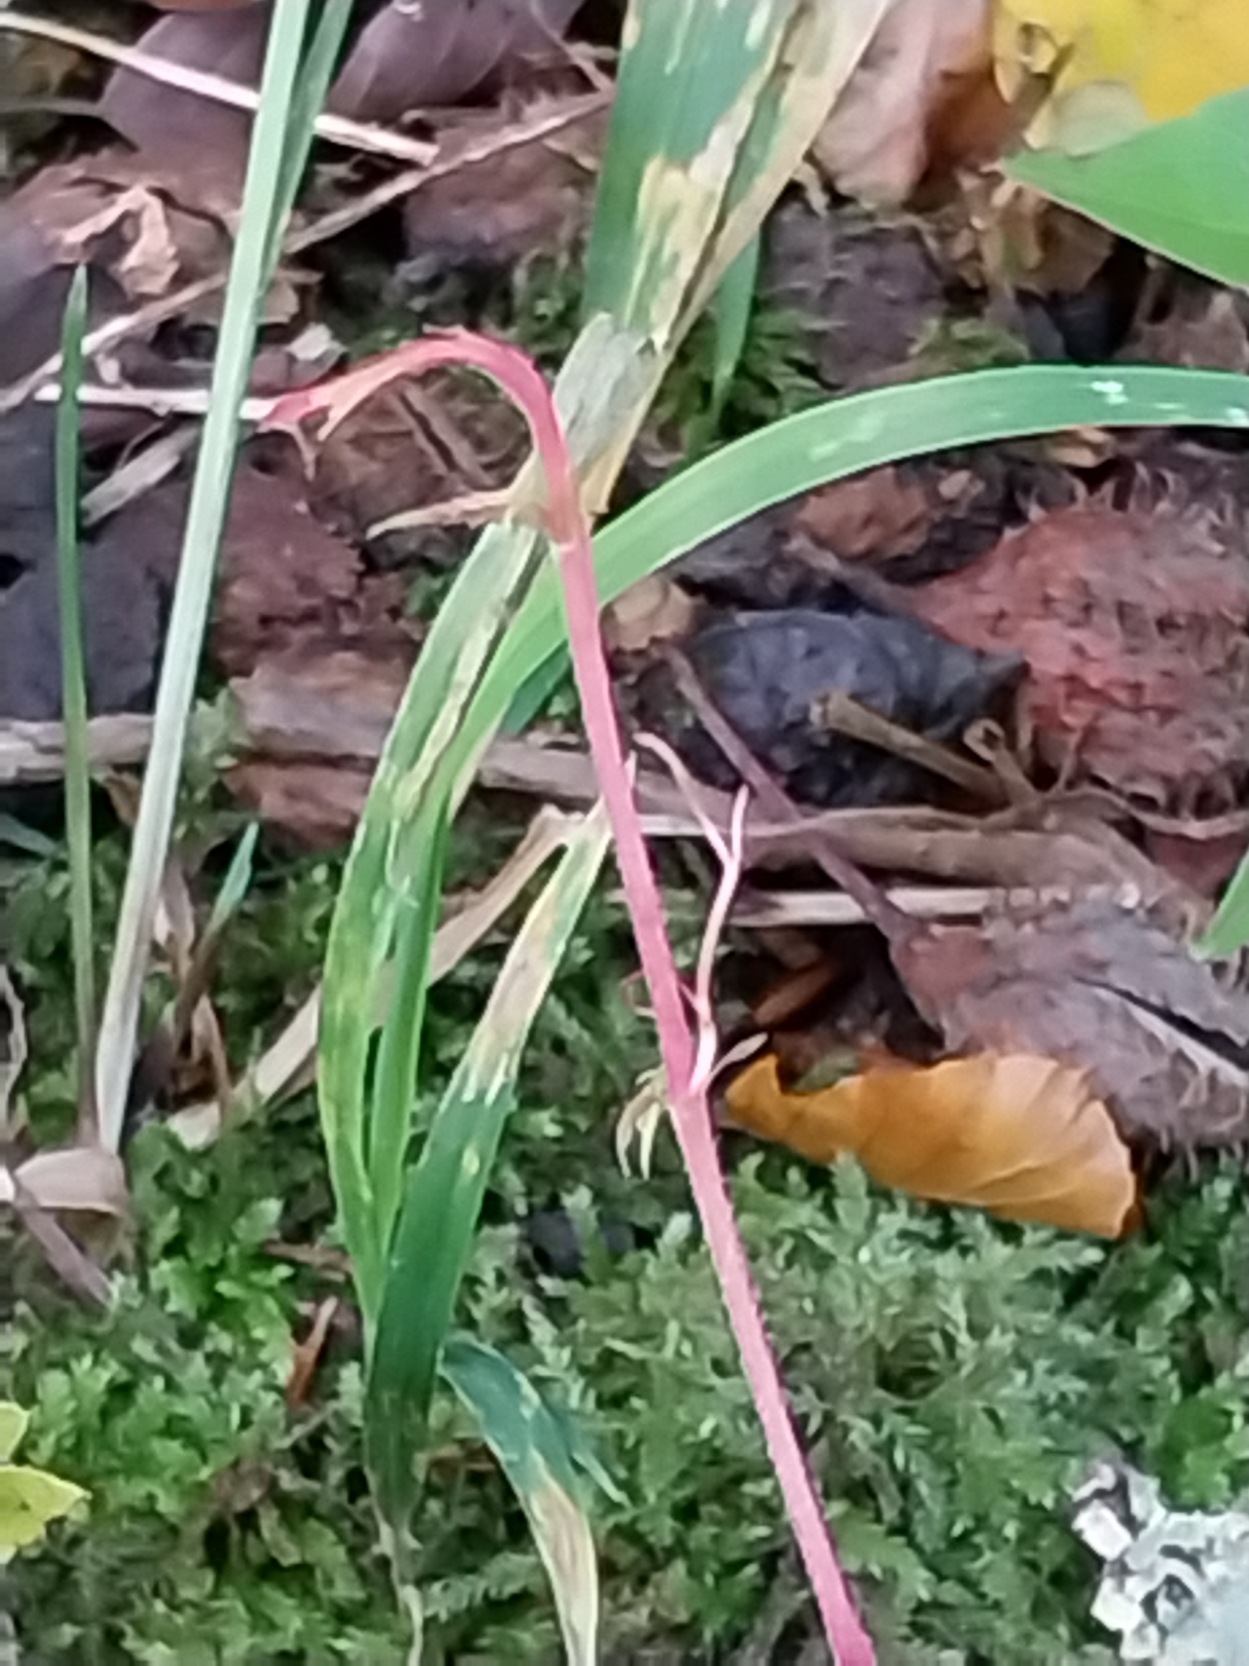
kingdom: Plantae
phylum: Tracheophyta
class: Magnoliopsida
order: Vitales
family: Vitaceae
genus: Parthenocissus
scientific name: Parthenocissus inserta
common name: Vildvin
